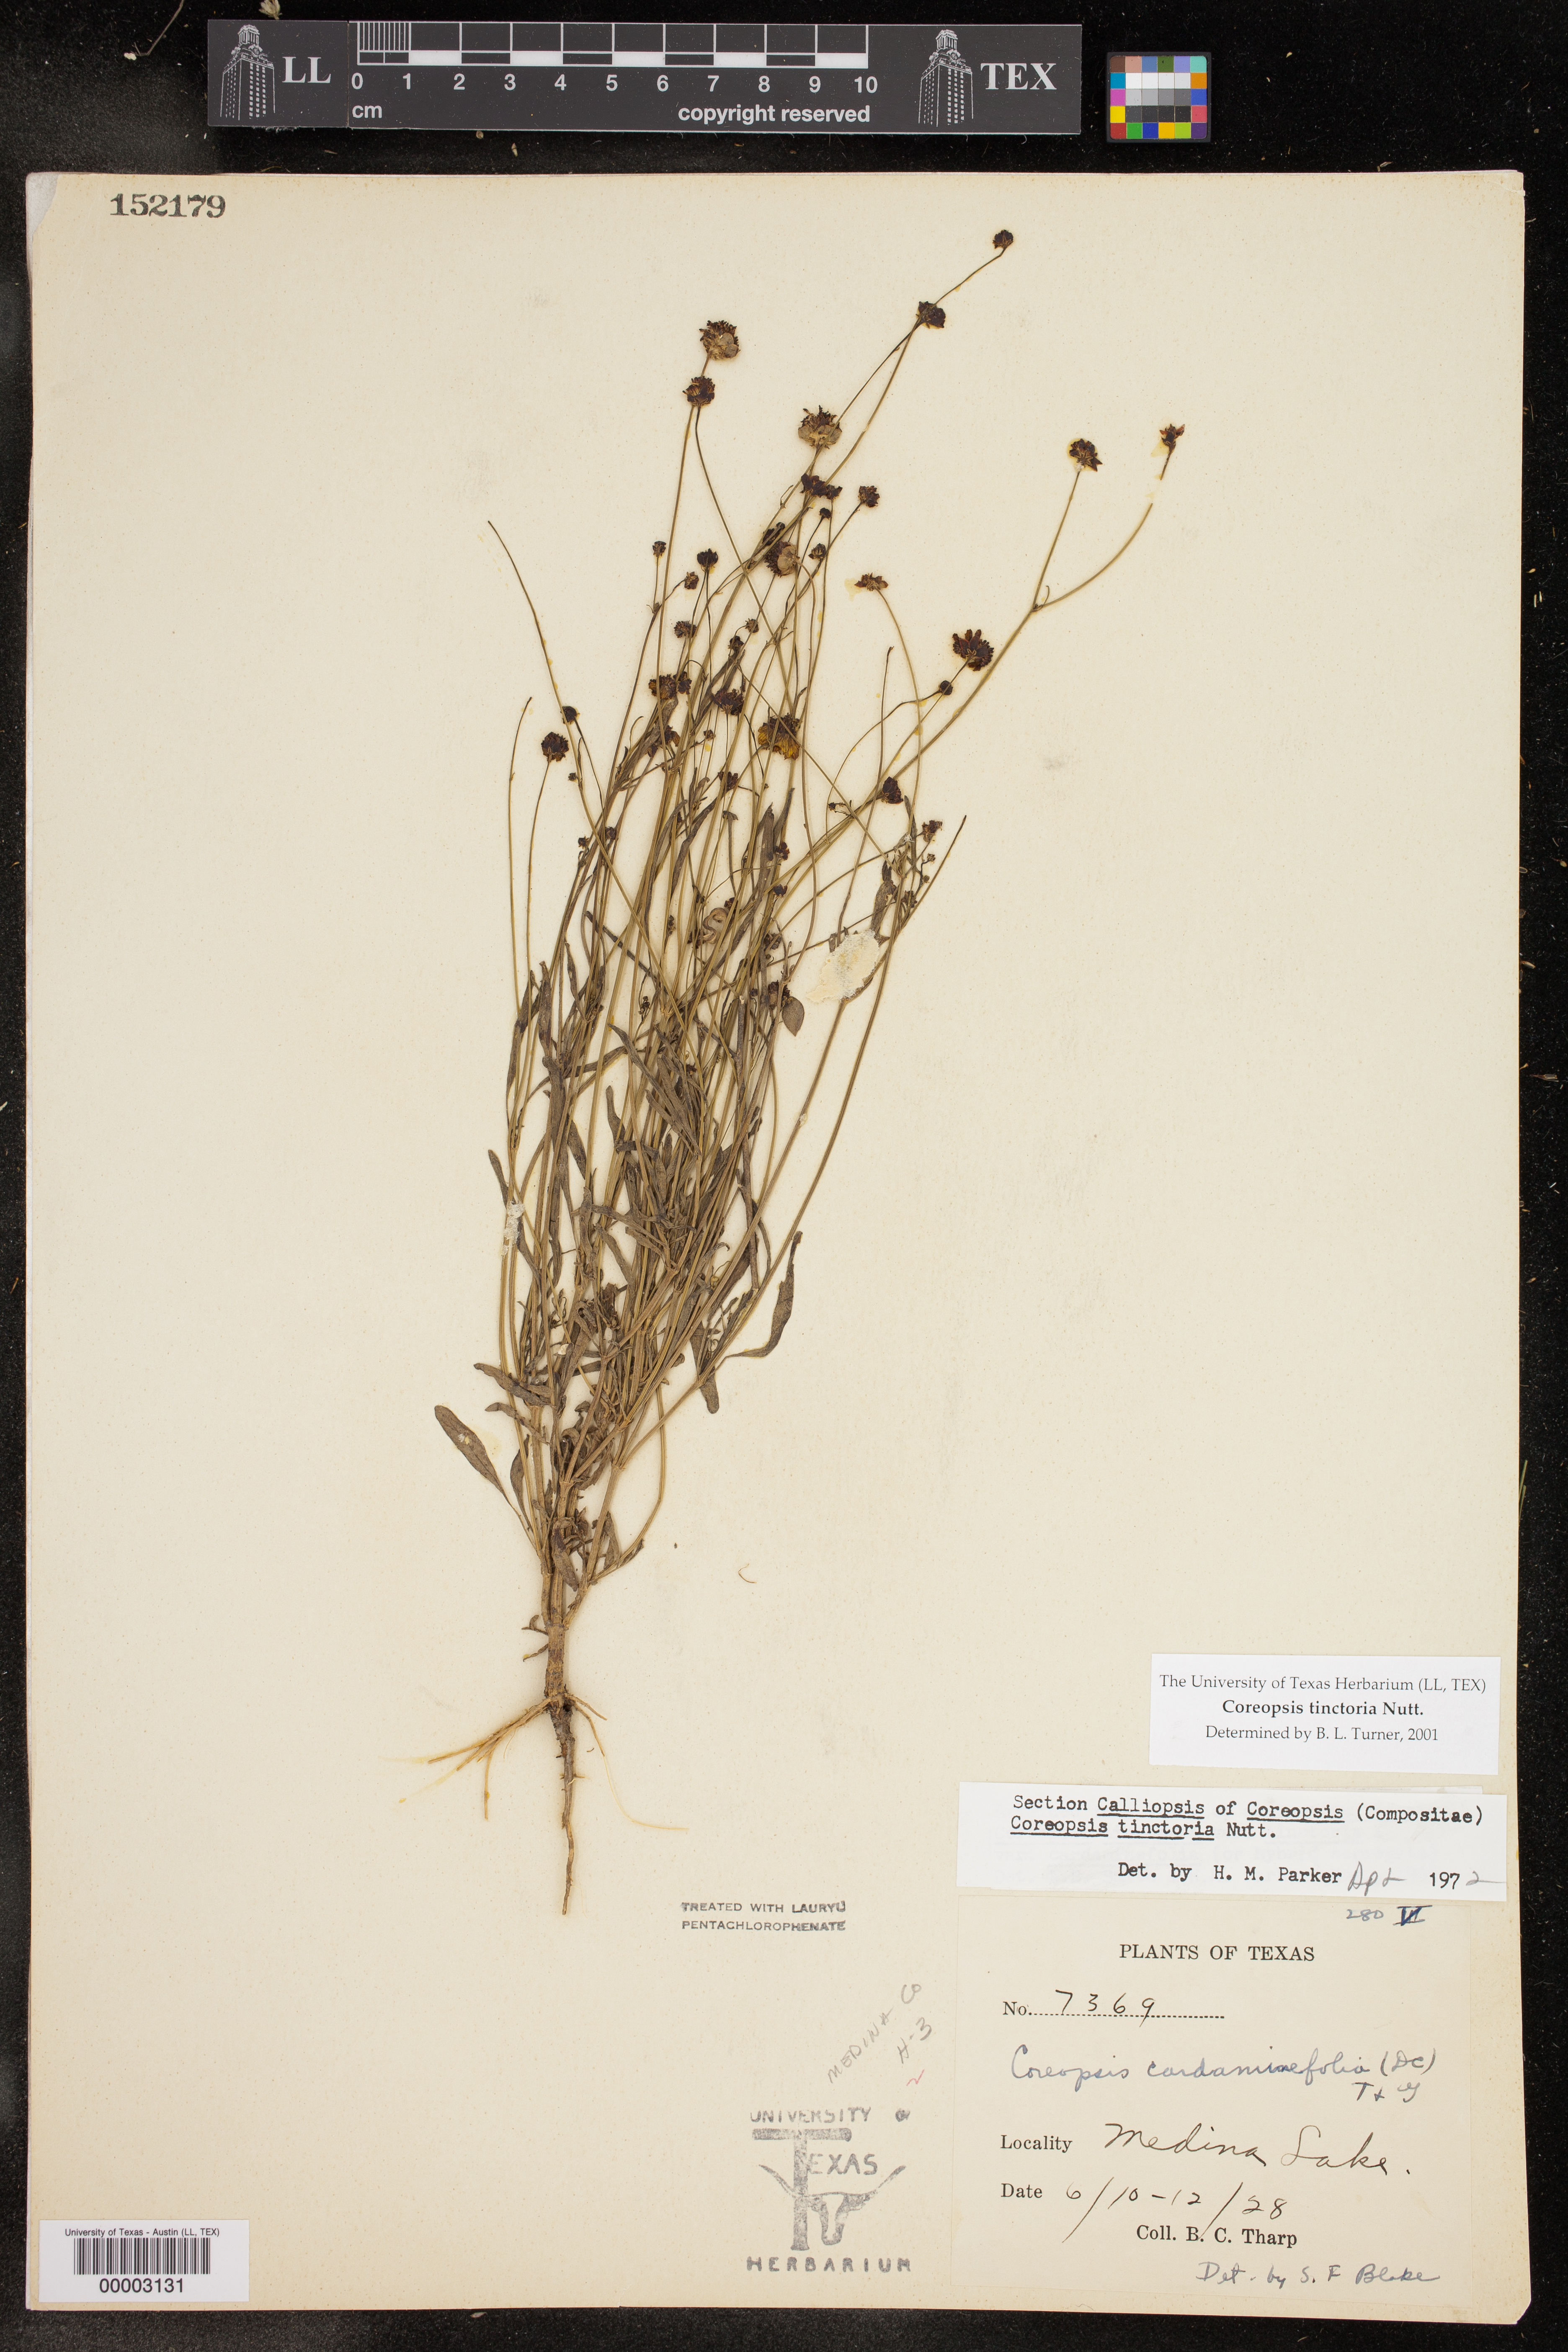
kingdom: Plantae
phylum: Tracheophyta
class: Magnoliopsida
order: Asterales
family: Asteraceae
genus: Coreopsis
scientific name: Coreopsis tinctoria
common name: Garden tickseed
